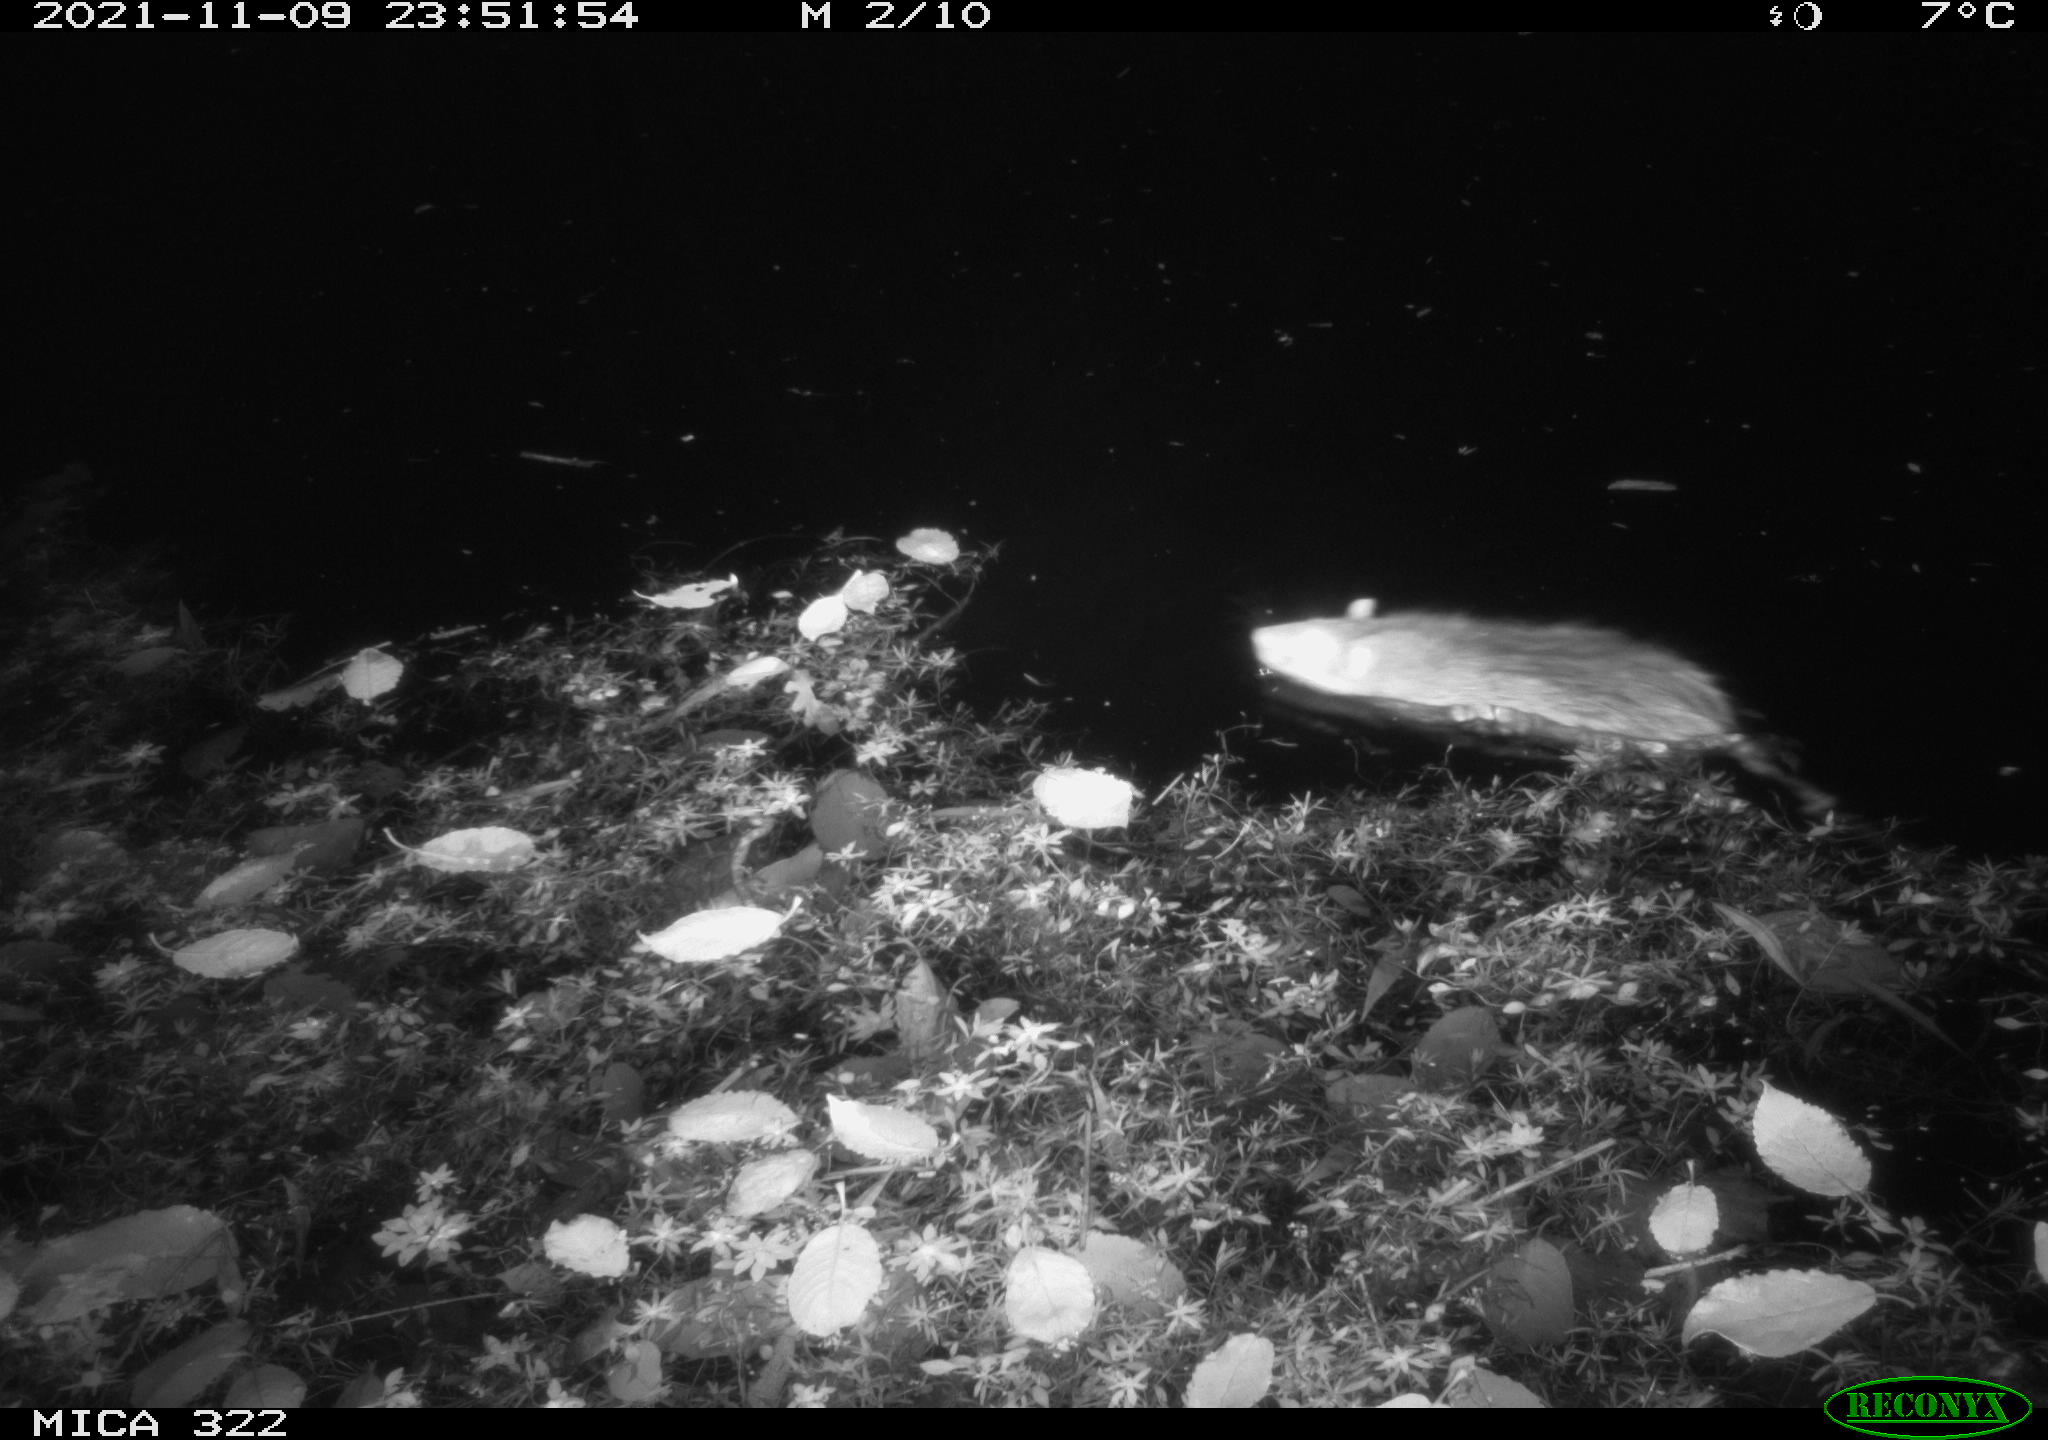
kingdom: Animalia
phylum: Chordata
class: Mammalia
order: Rodentia
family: Muridae
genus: Rattus
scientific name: Rattus norvegicus
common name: Brown rat
